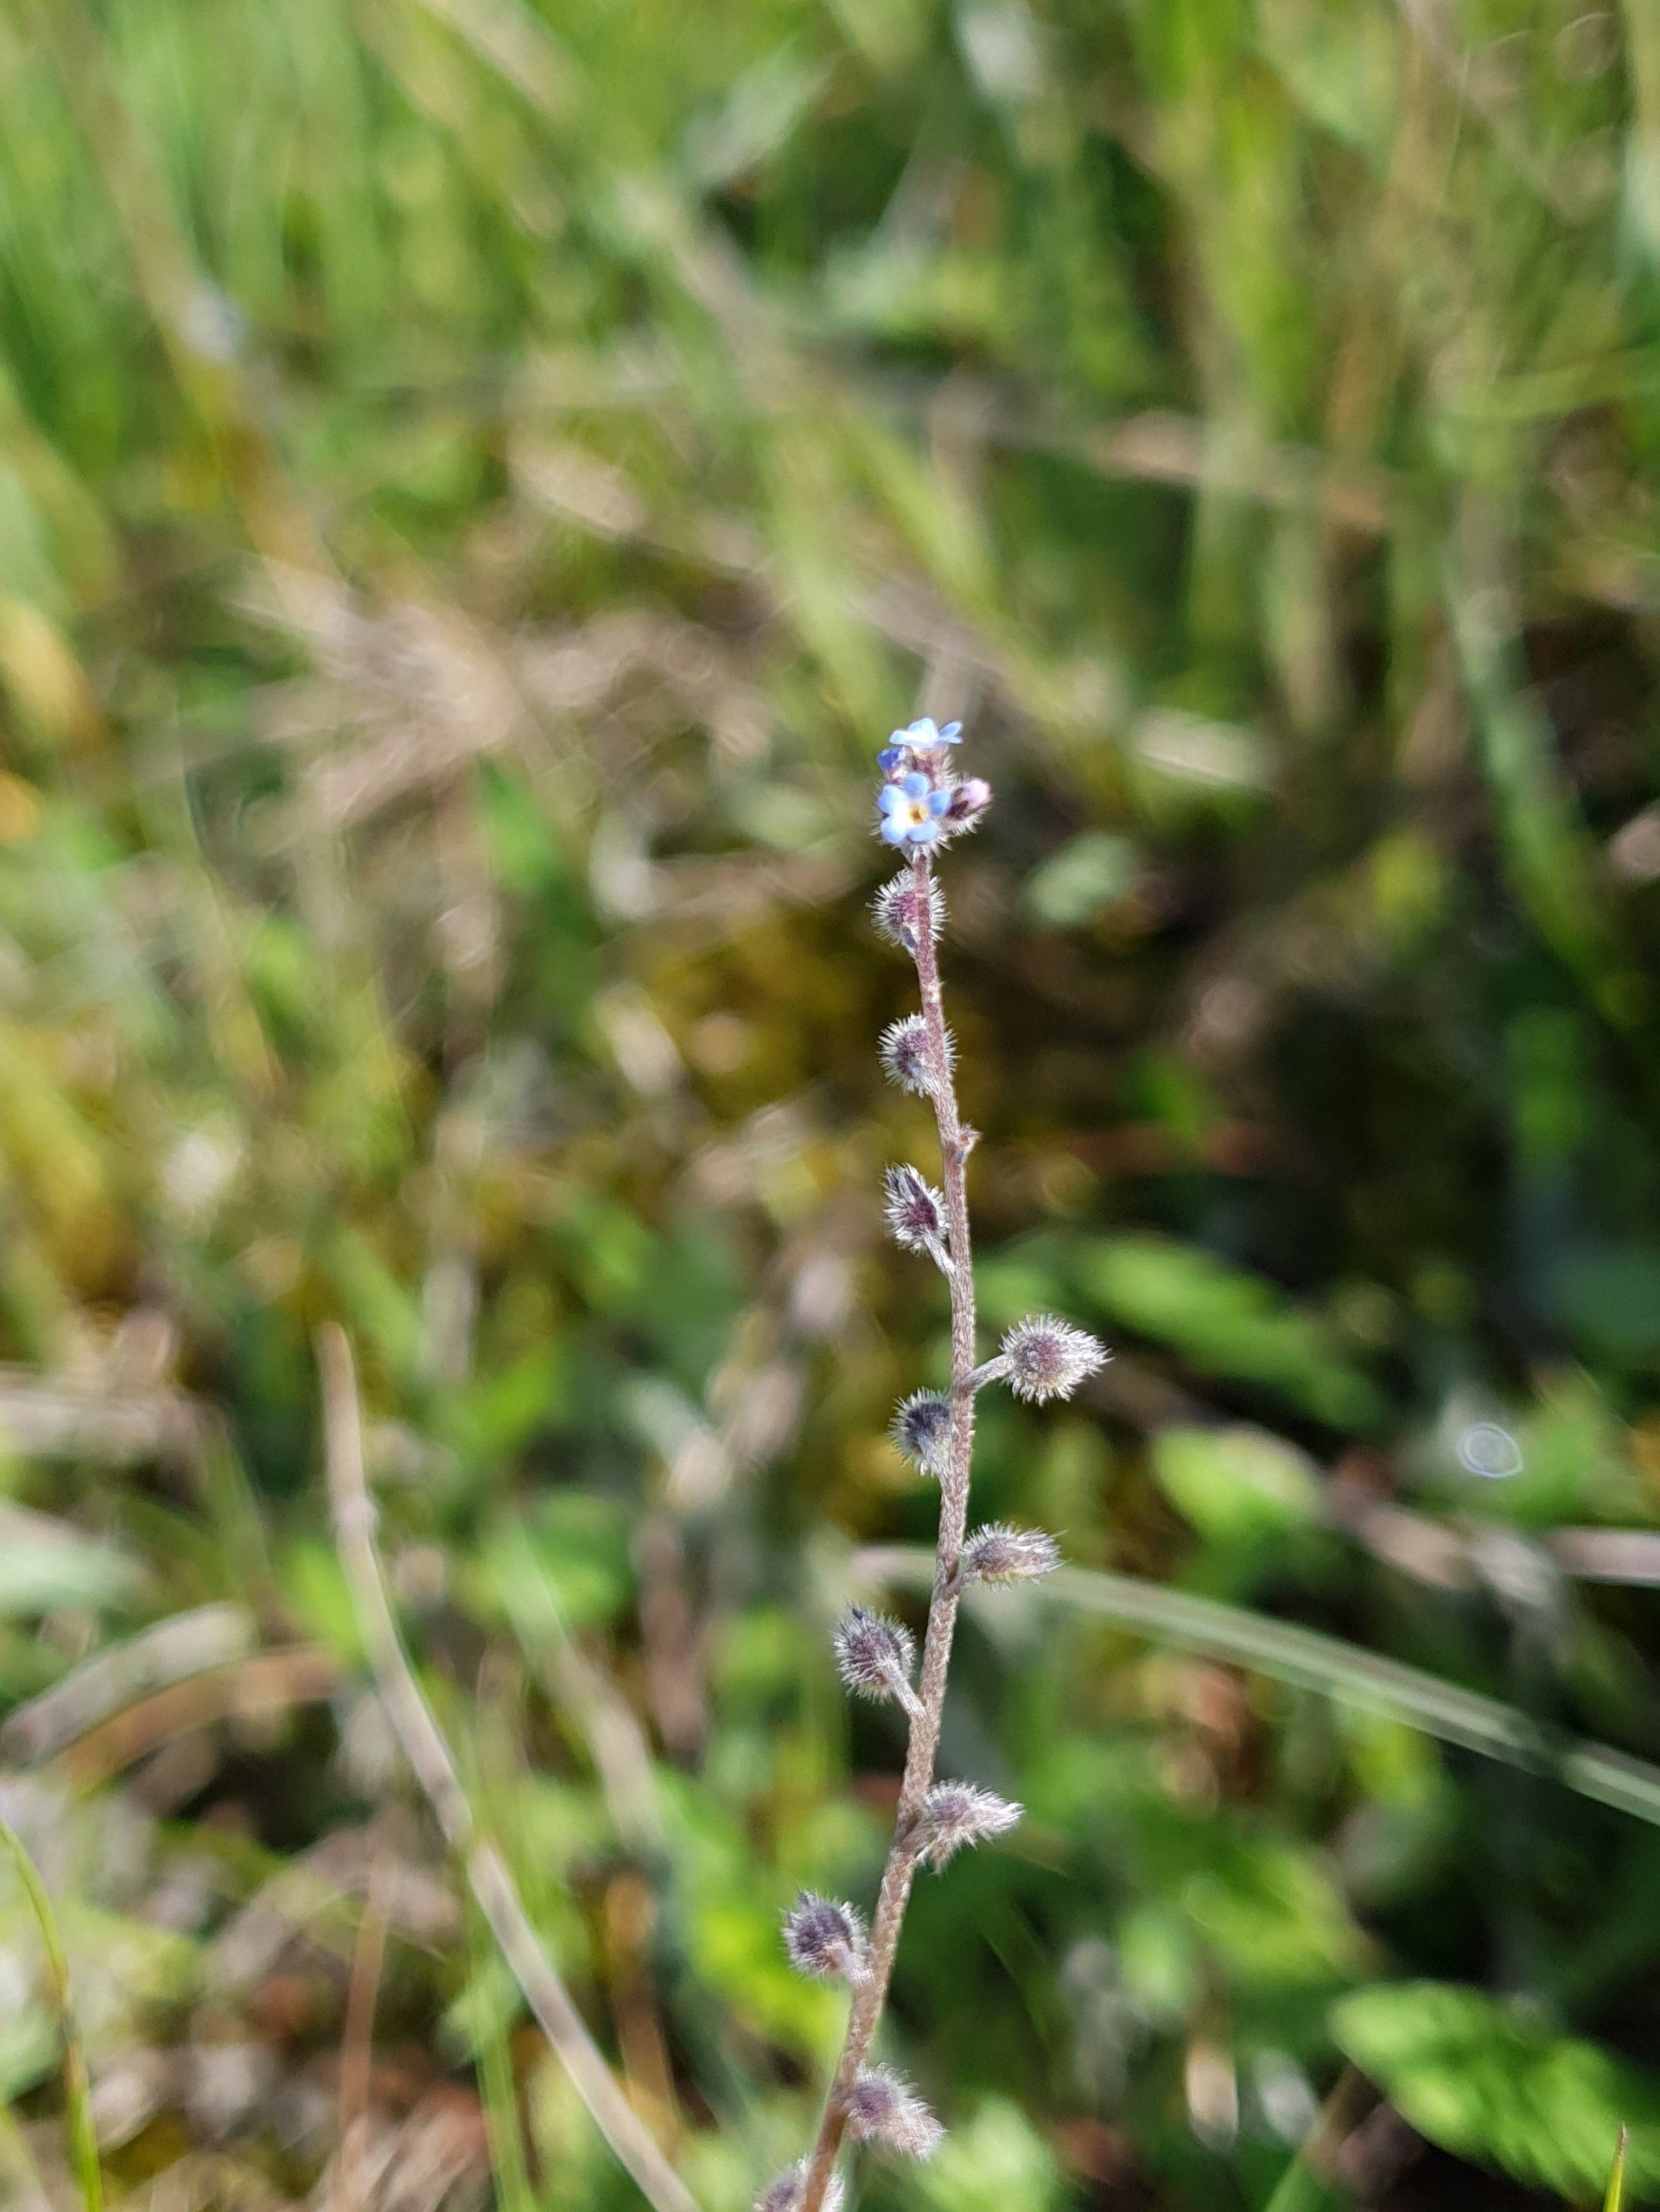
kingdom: Plantae
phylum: Tracheophyta
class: Magnoliopsida
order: Boraginales
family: Boraginaceae
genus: Myosotis
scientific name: Myosotis ramosissima
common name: Bakke-forglemmigej
